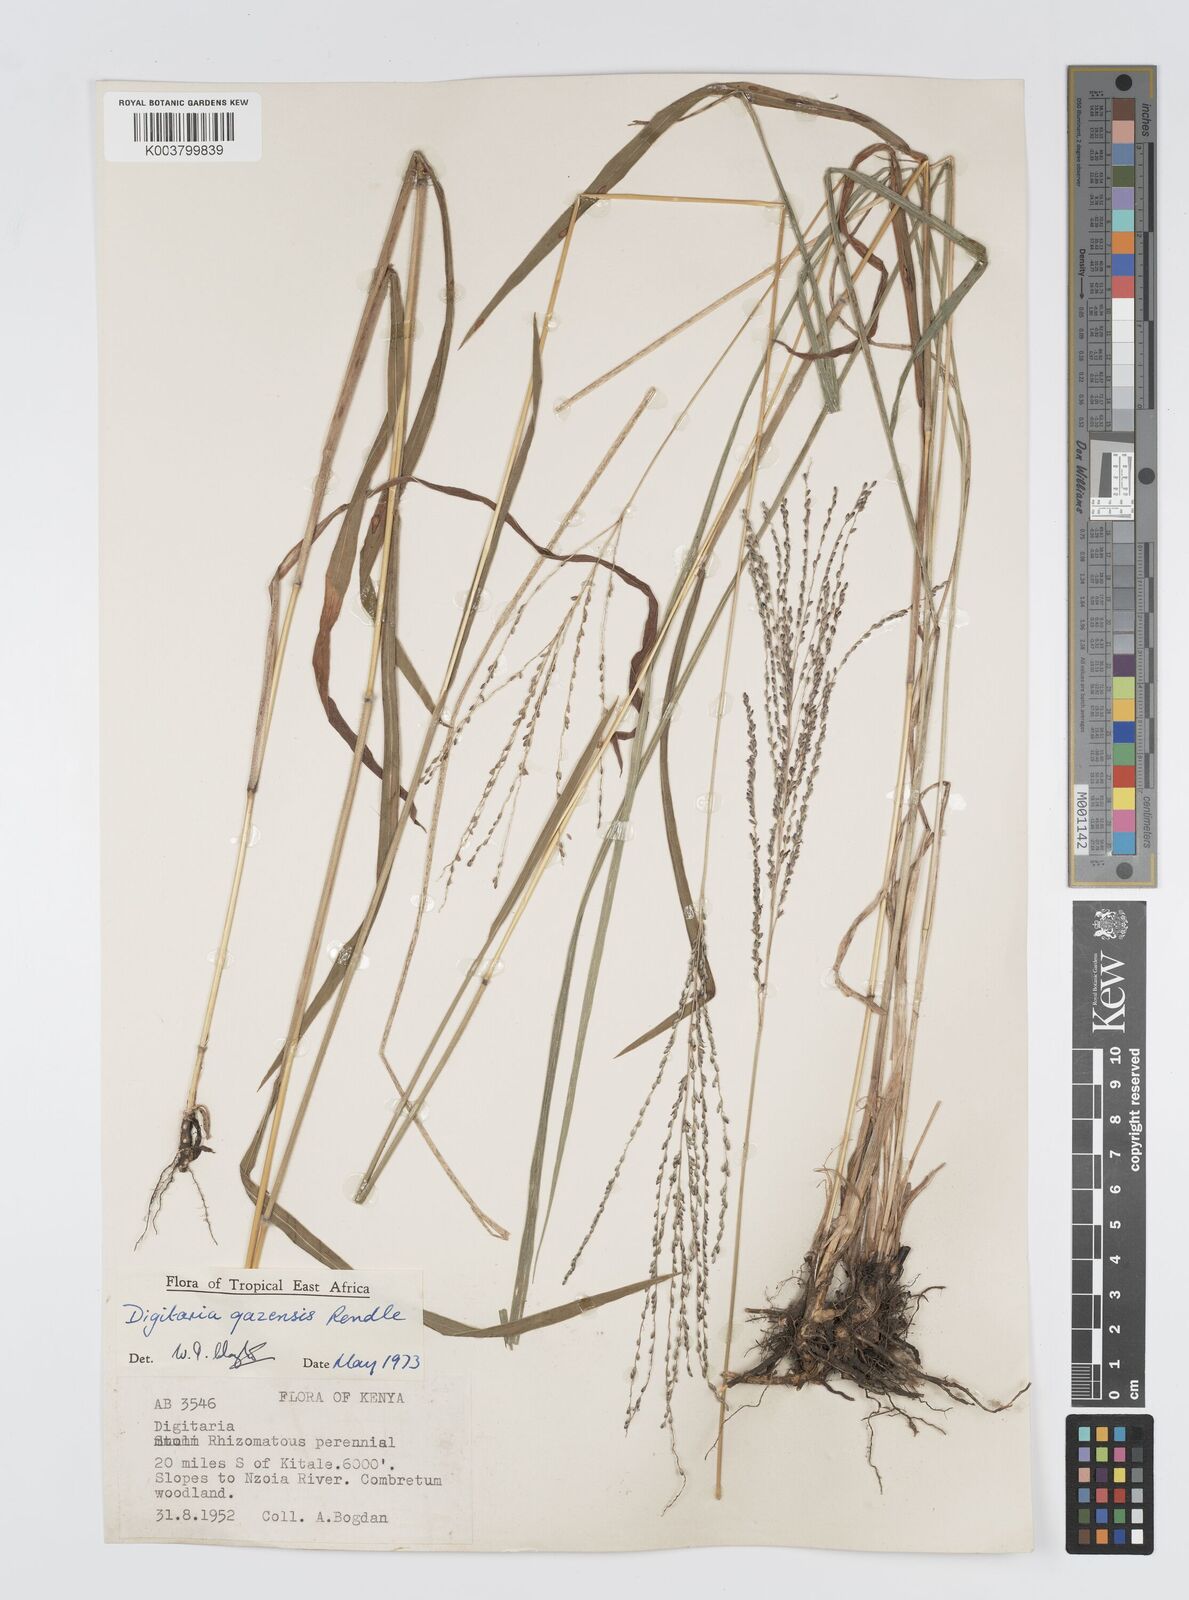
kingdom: Plantae
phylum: Tracheophyta
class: Liliopsida
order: Poales
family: Poaceae
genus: Digitaria
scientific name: Digitaria gazensis
